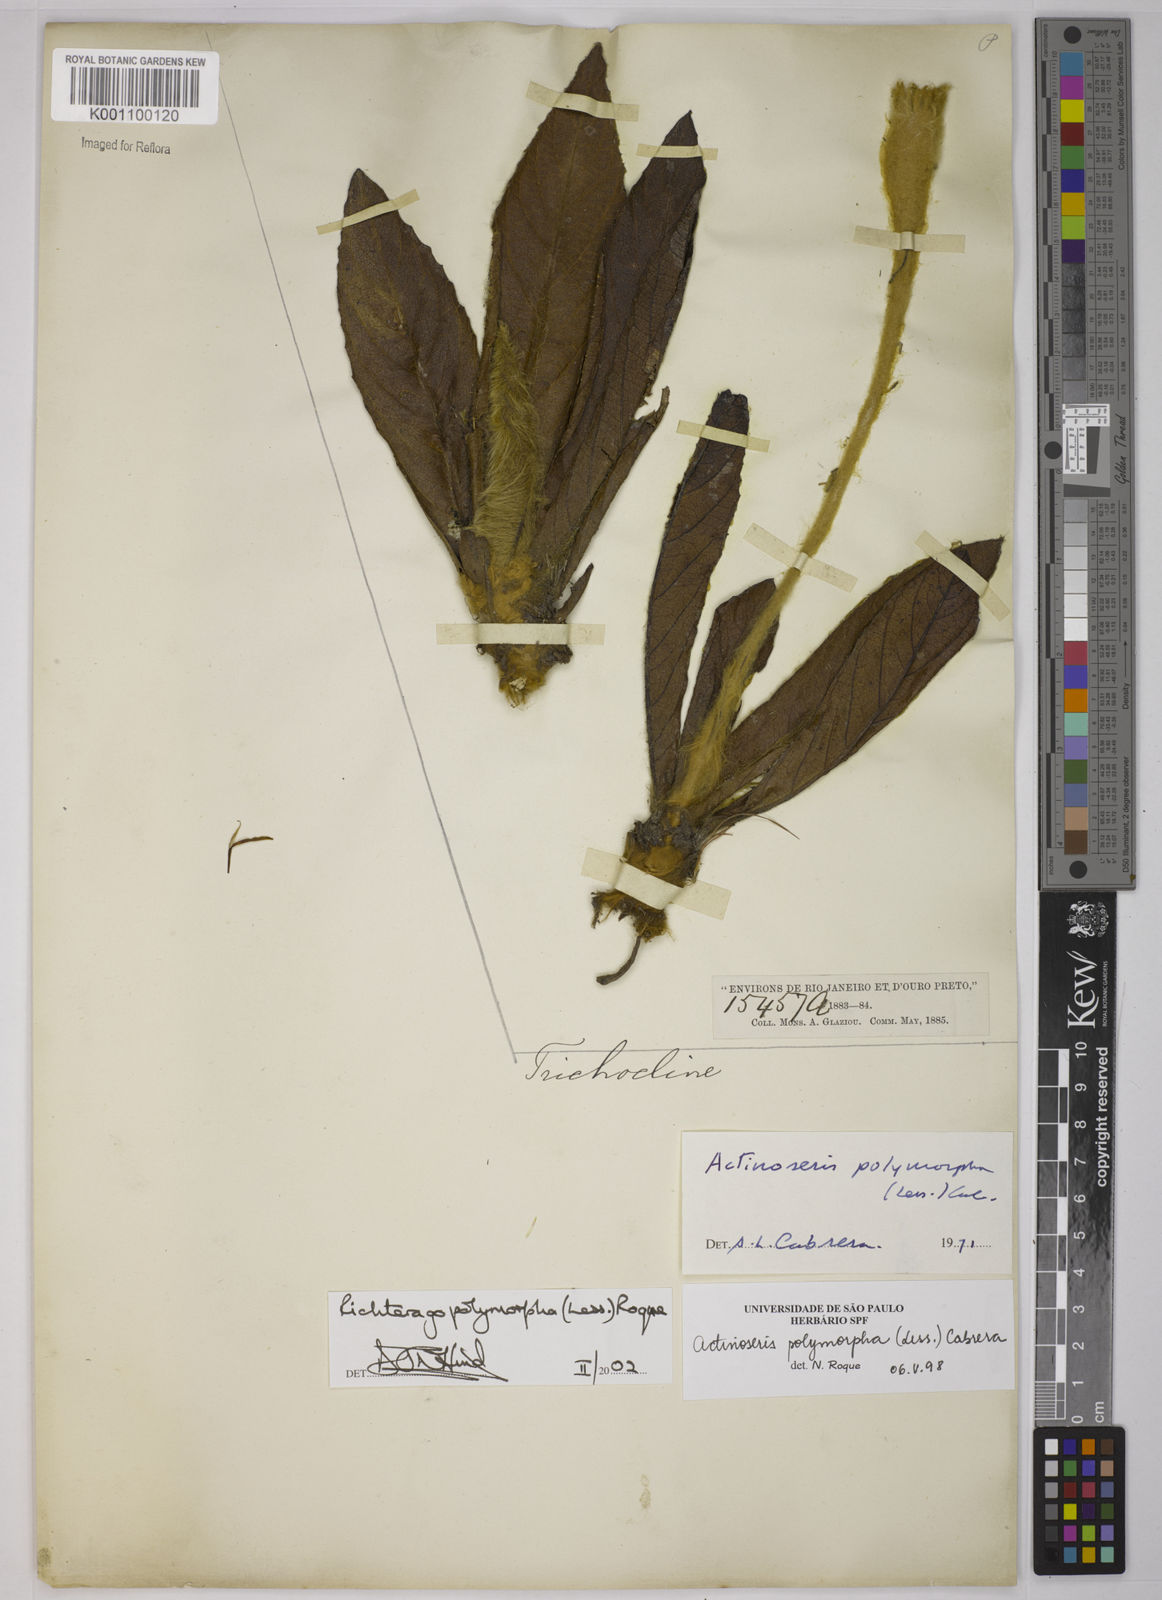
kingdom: Plantae
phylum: Tracheophyta
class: Magnoliopsida
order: Asterales
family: Asteraceae
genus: Richterago
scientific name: Richterago polymorpha
